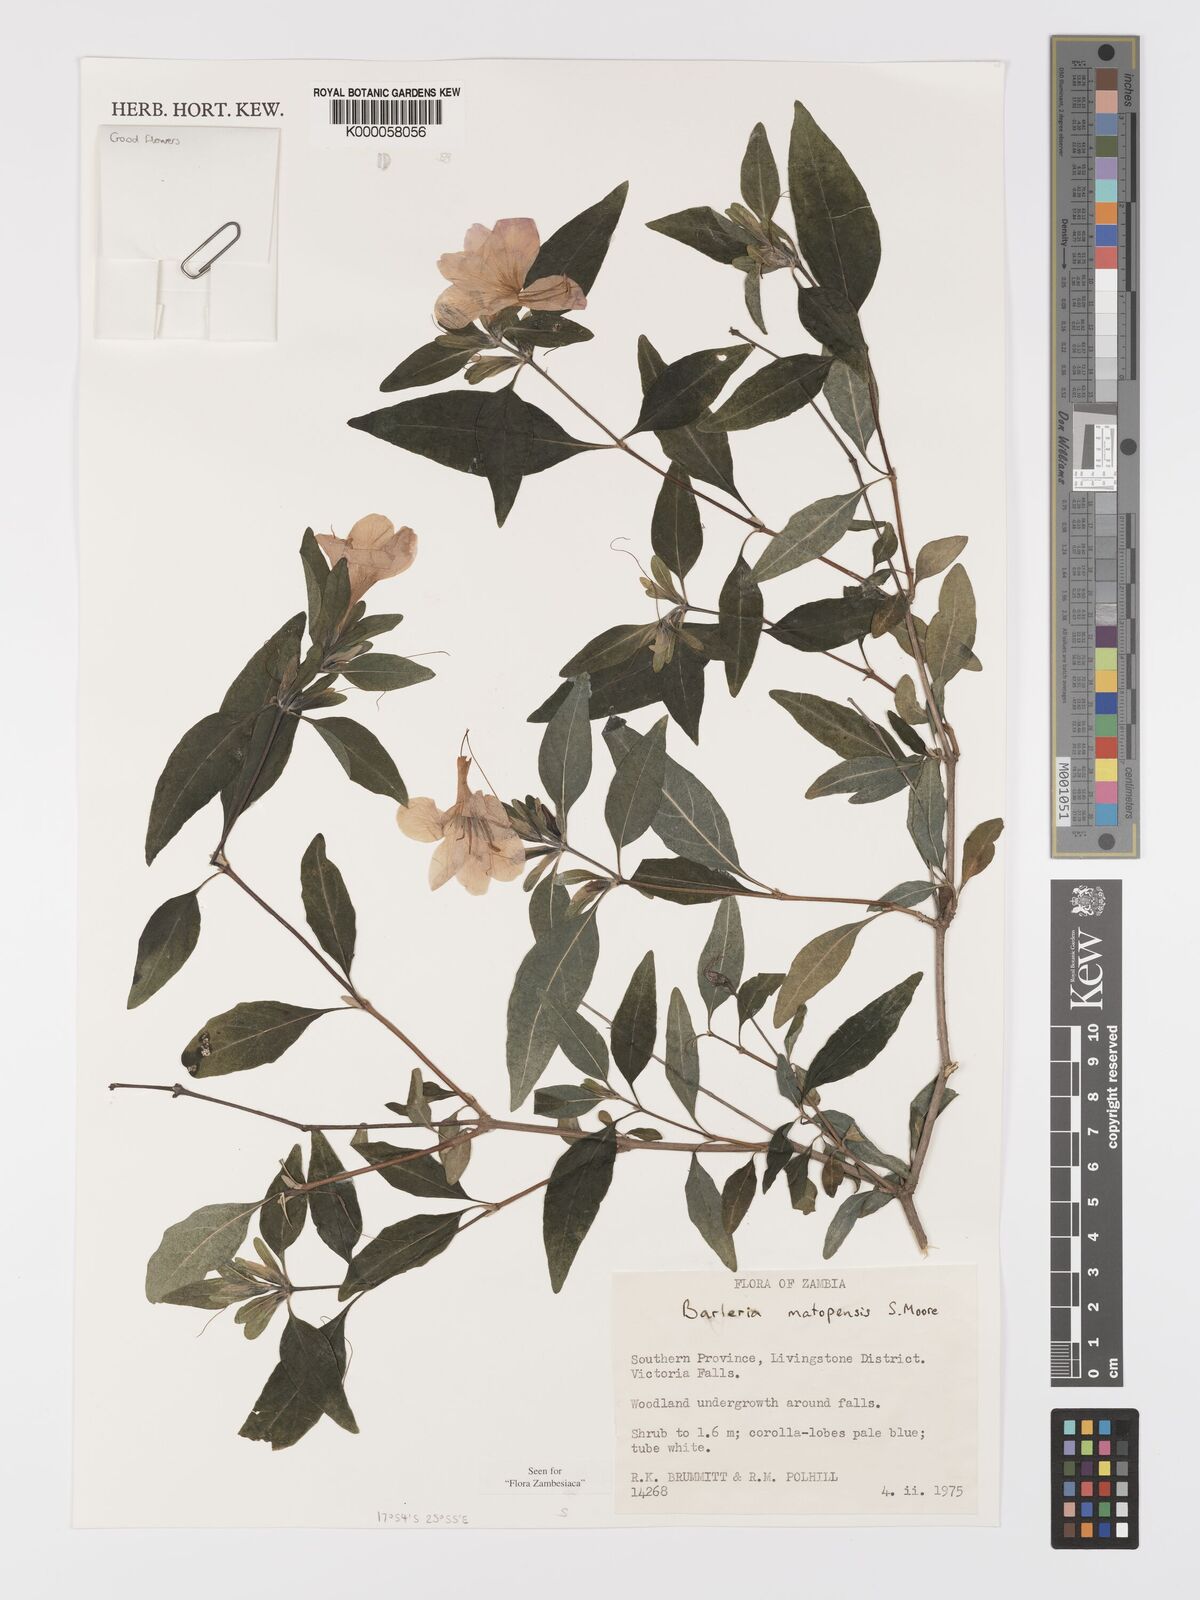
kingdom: Plantae
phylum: Tracheophyta
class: Magnoliopsida
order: Lamiales
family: Acanthaceae
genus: Barleria
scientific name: Barleria matopensis
